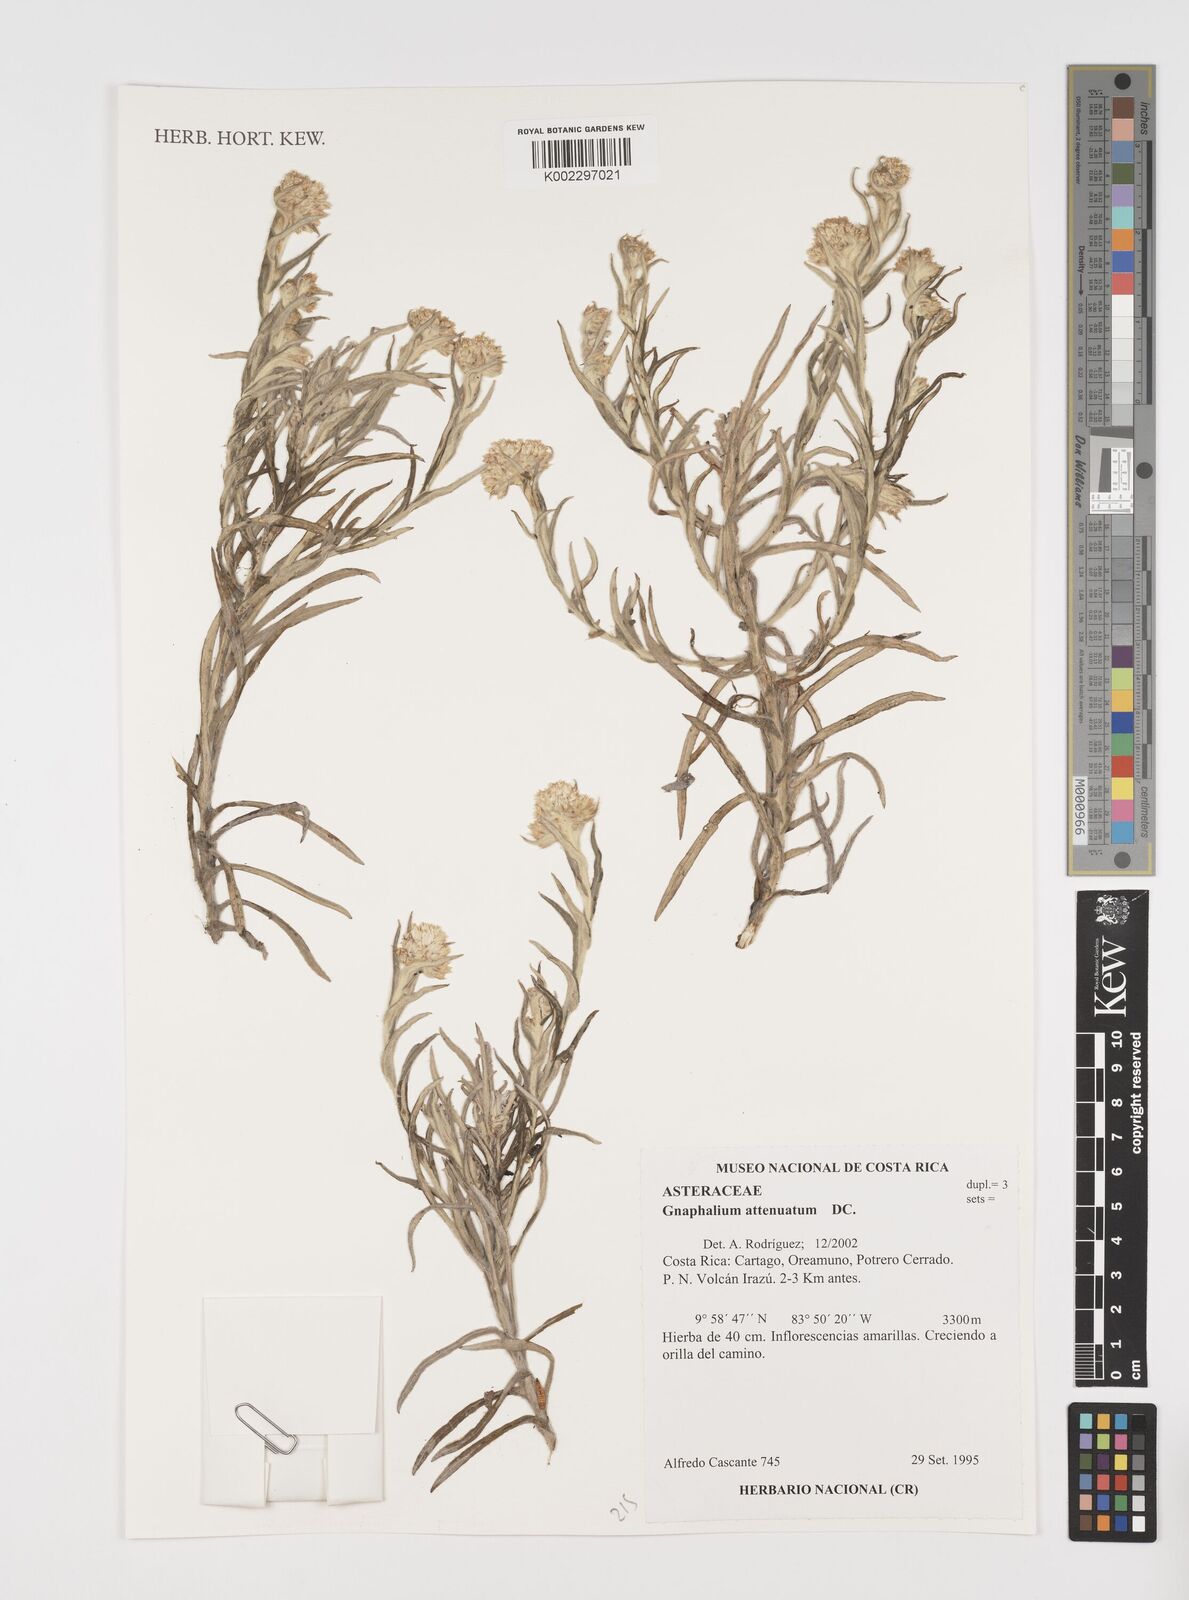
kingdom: Plantae
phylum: Tracheophyta
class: Magnoliopsida
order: Asterales
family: Asteraceae
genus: Pseudognaphalium
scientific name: Pseudognaphalium attenuatum
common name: Tapered cudweed
